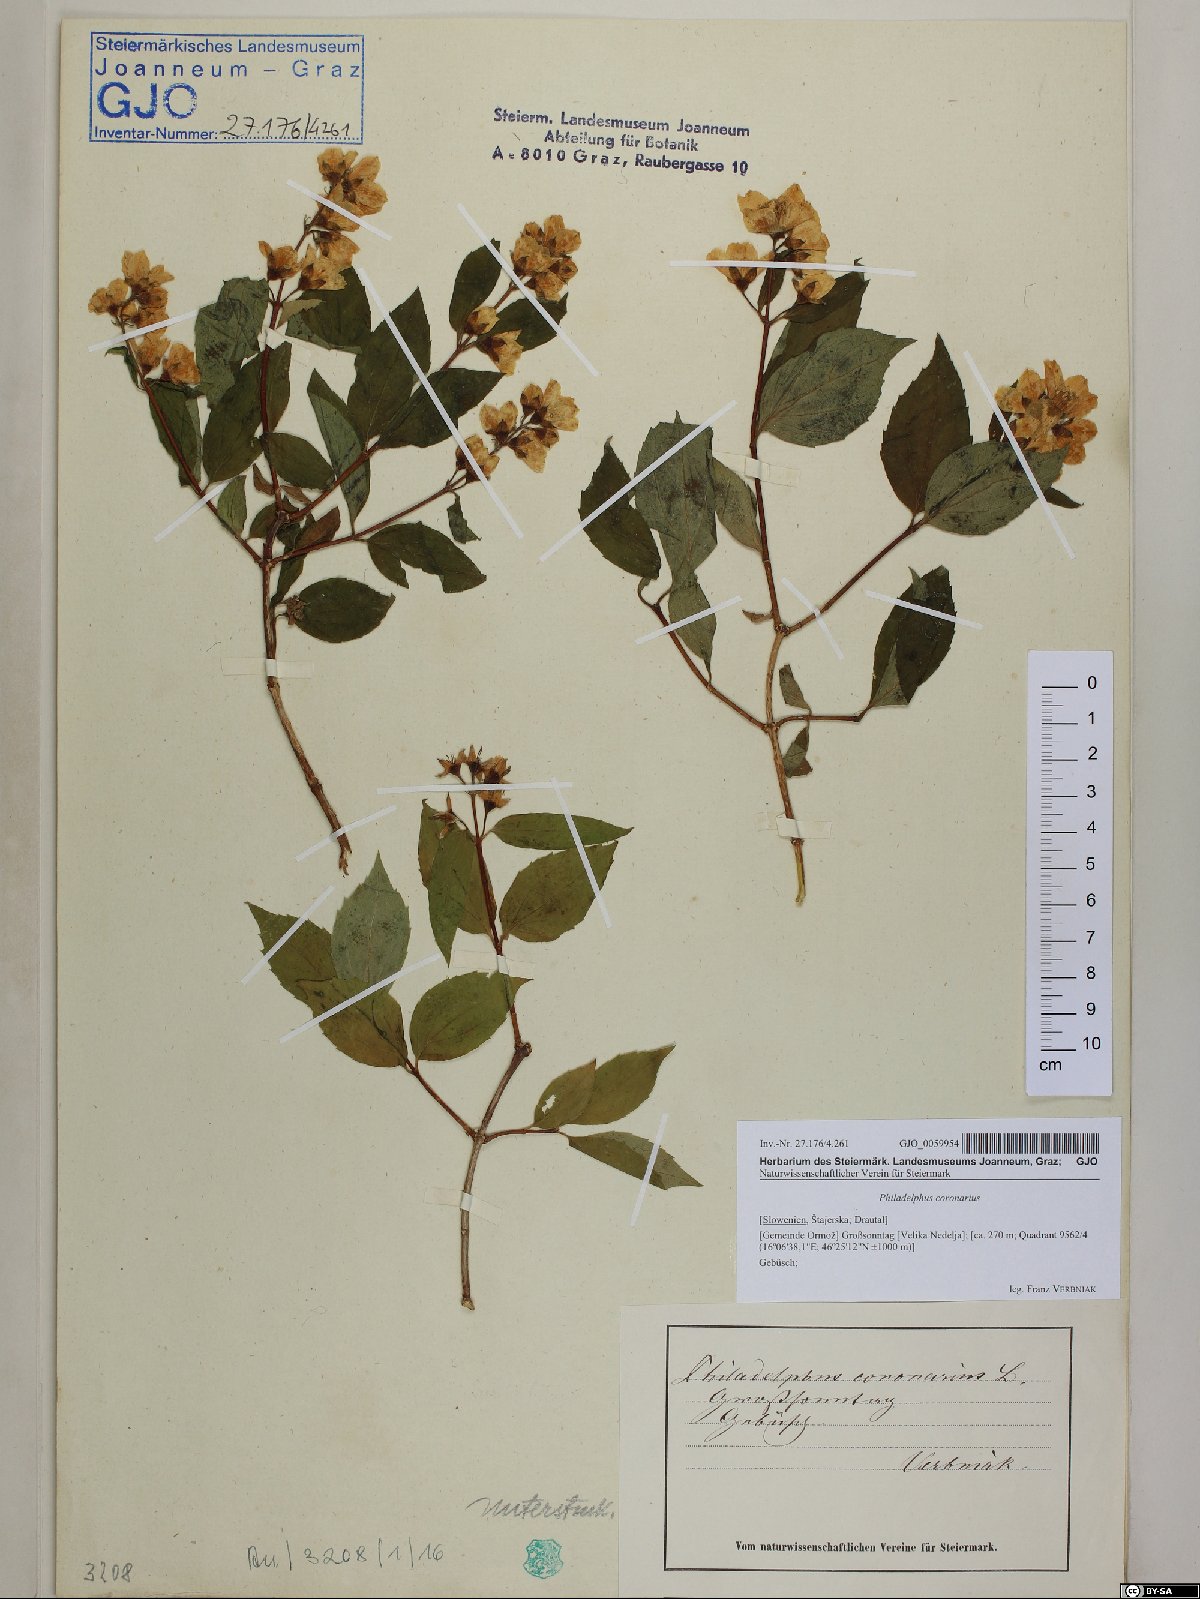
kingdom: Plantae
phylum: Tracheophyta
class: Magnoliopsida
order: Cornales
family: Hydrangeaceae
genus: Philadelphus
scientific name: Philadelphus coronarius
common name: Mock orange
